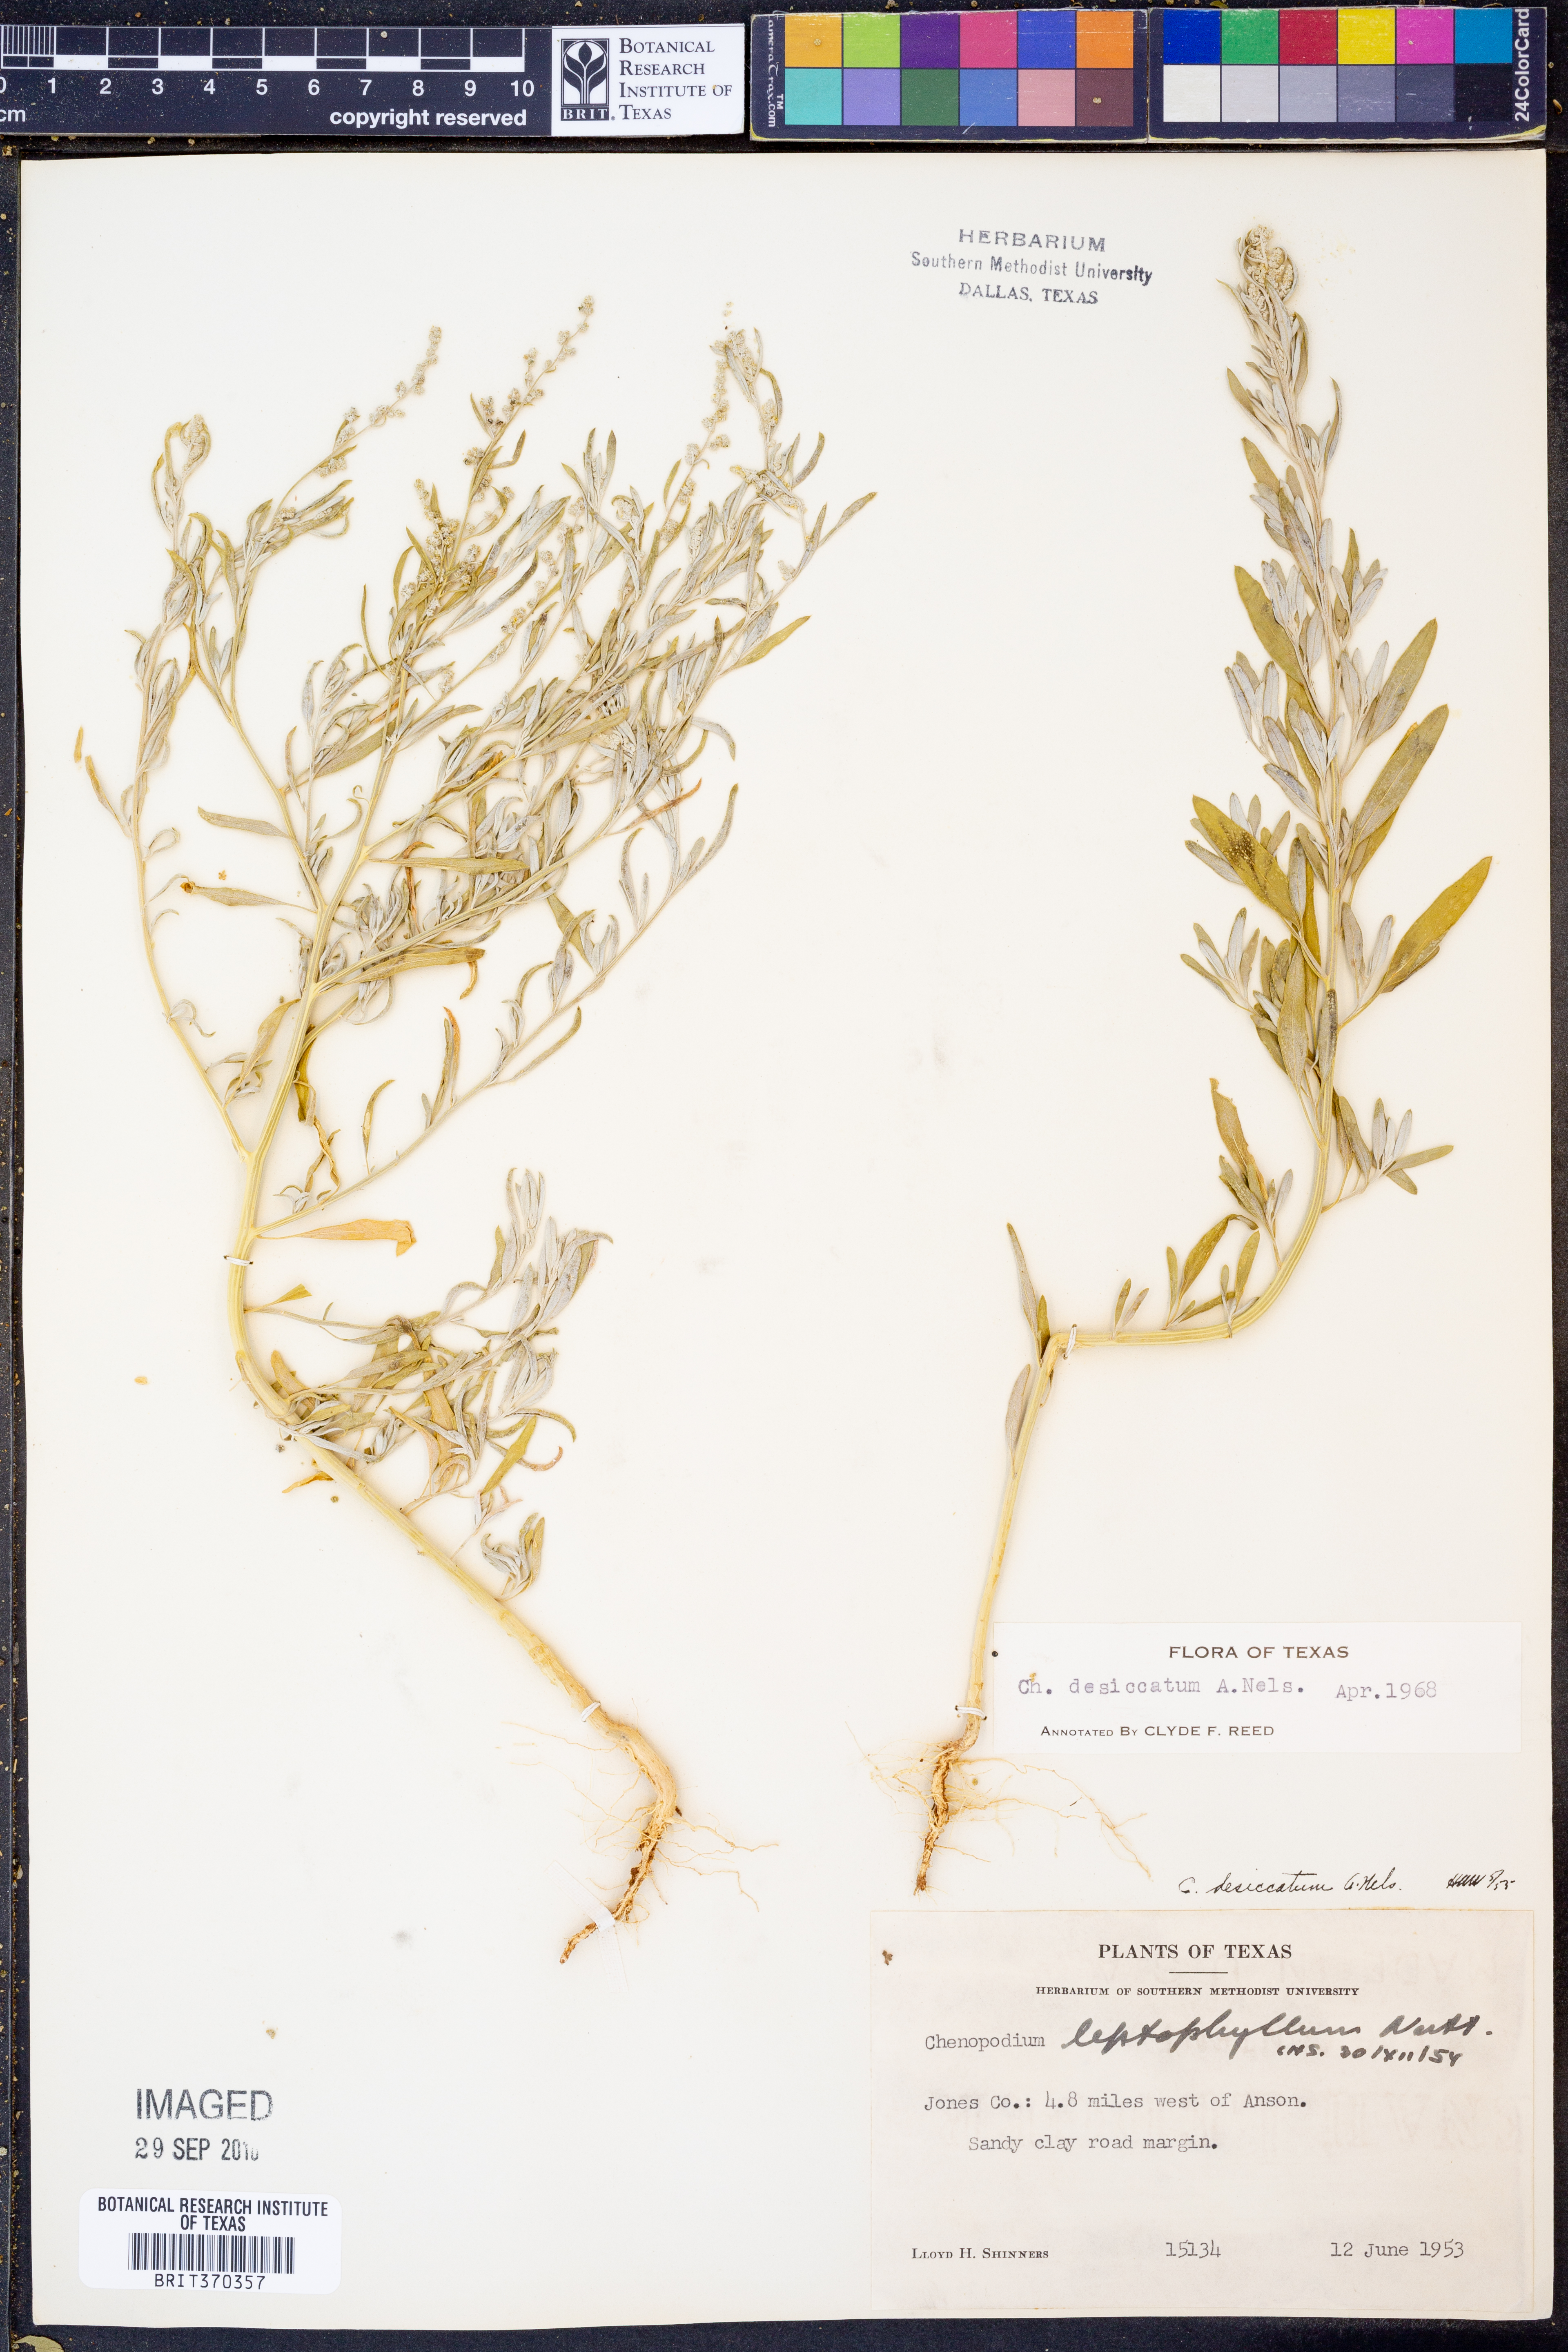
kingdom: Plantae
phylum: Tracheophyta
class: Magnoliopsida
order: Caryophyllales
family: Amaranthaceae
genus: Chenopodium
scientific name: Chenopodium desiccatum
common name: Slimleaf goosefoot
